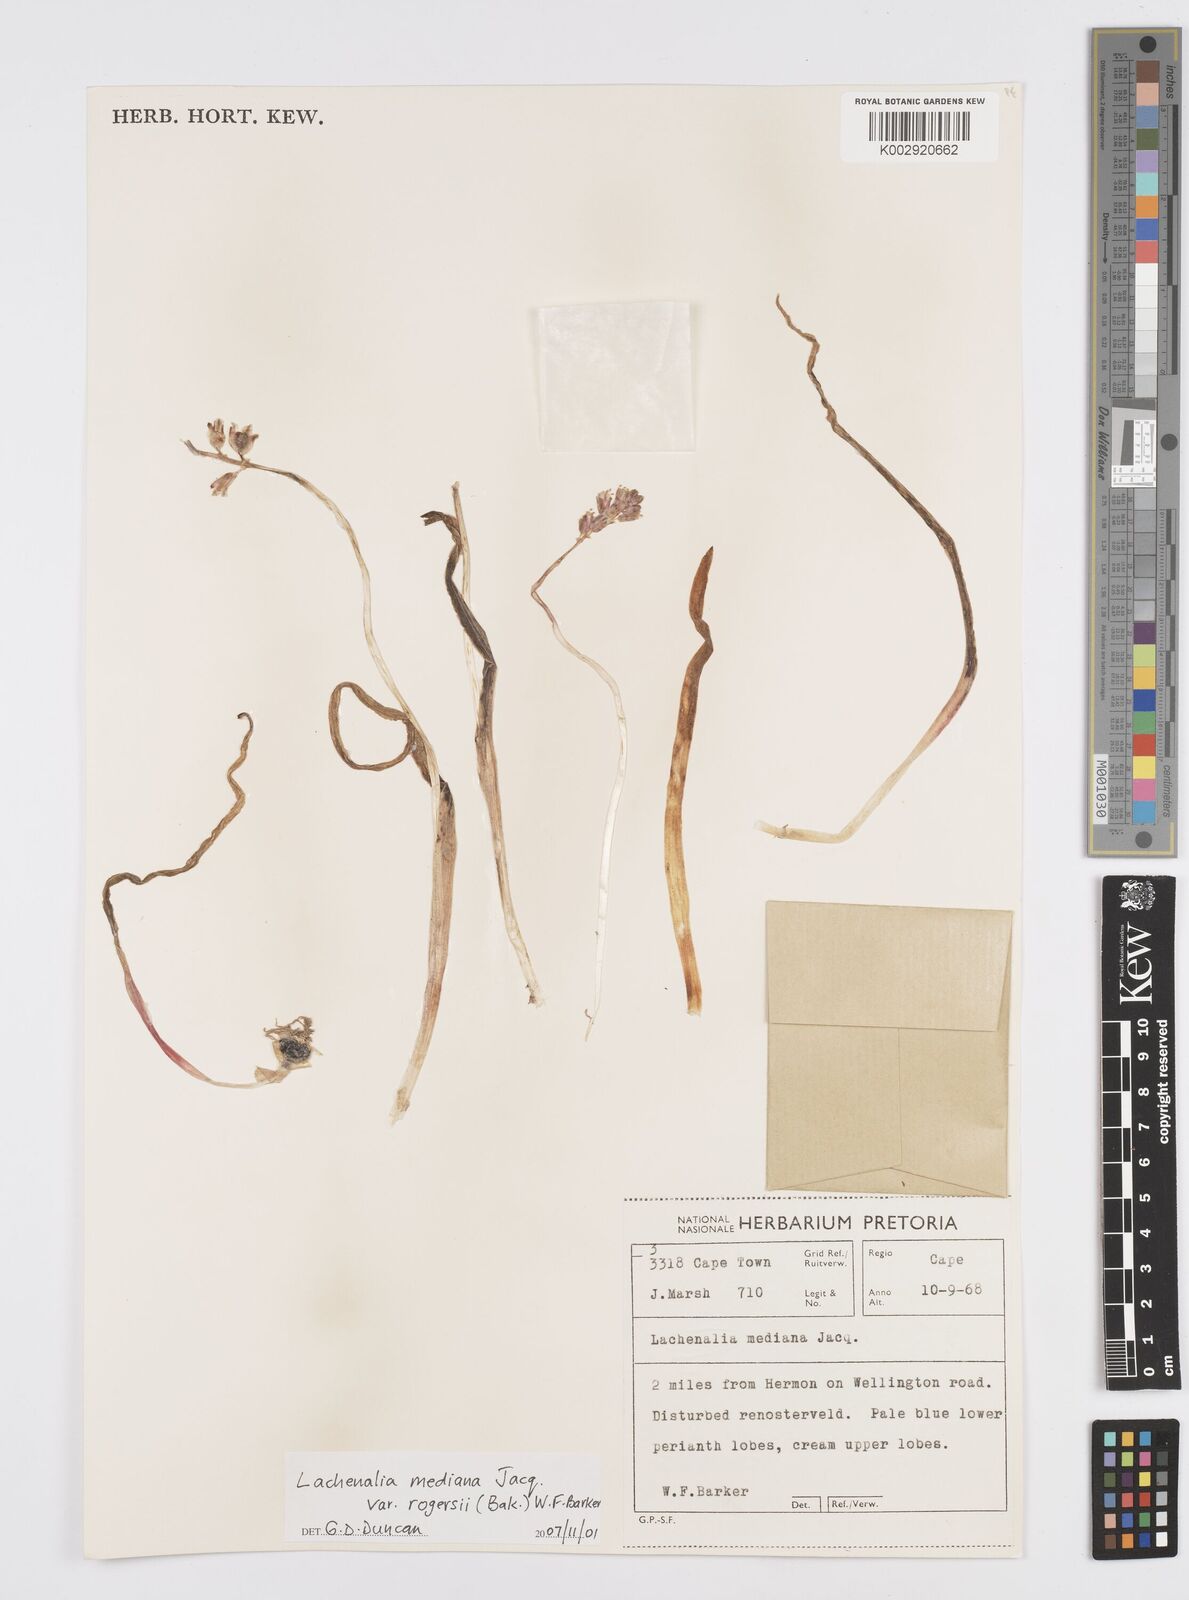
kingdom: Plantae
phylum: Tracheophyta
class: Liliopsida
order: Asparagales
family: Asparagaceae
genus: Lachenalia
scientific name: Lachenalia mediana
